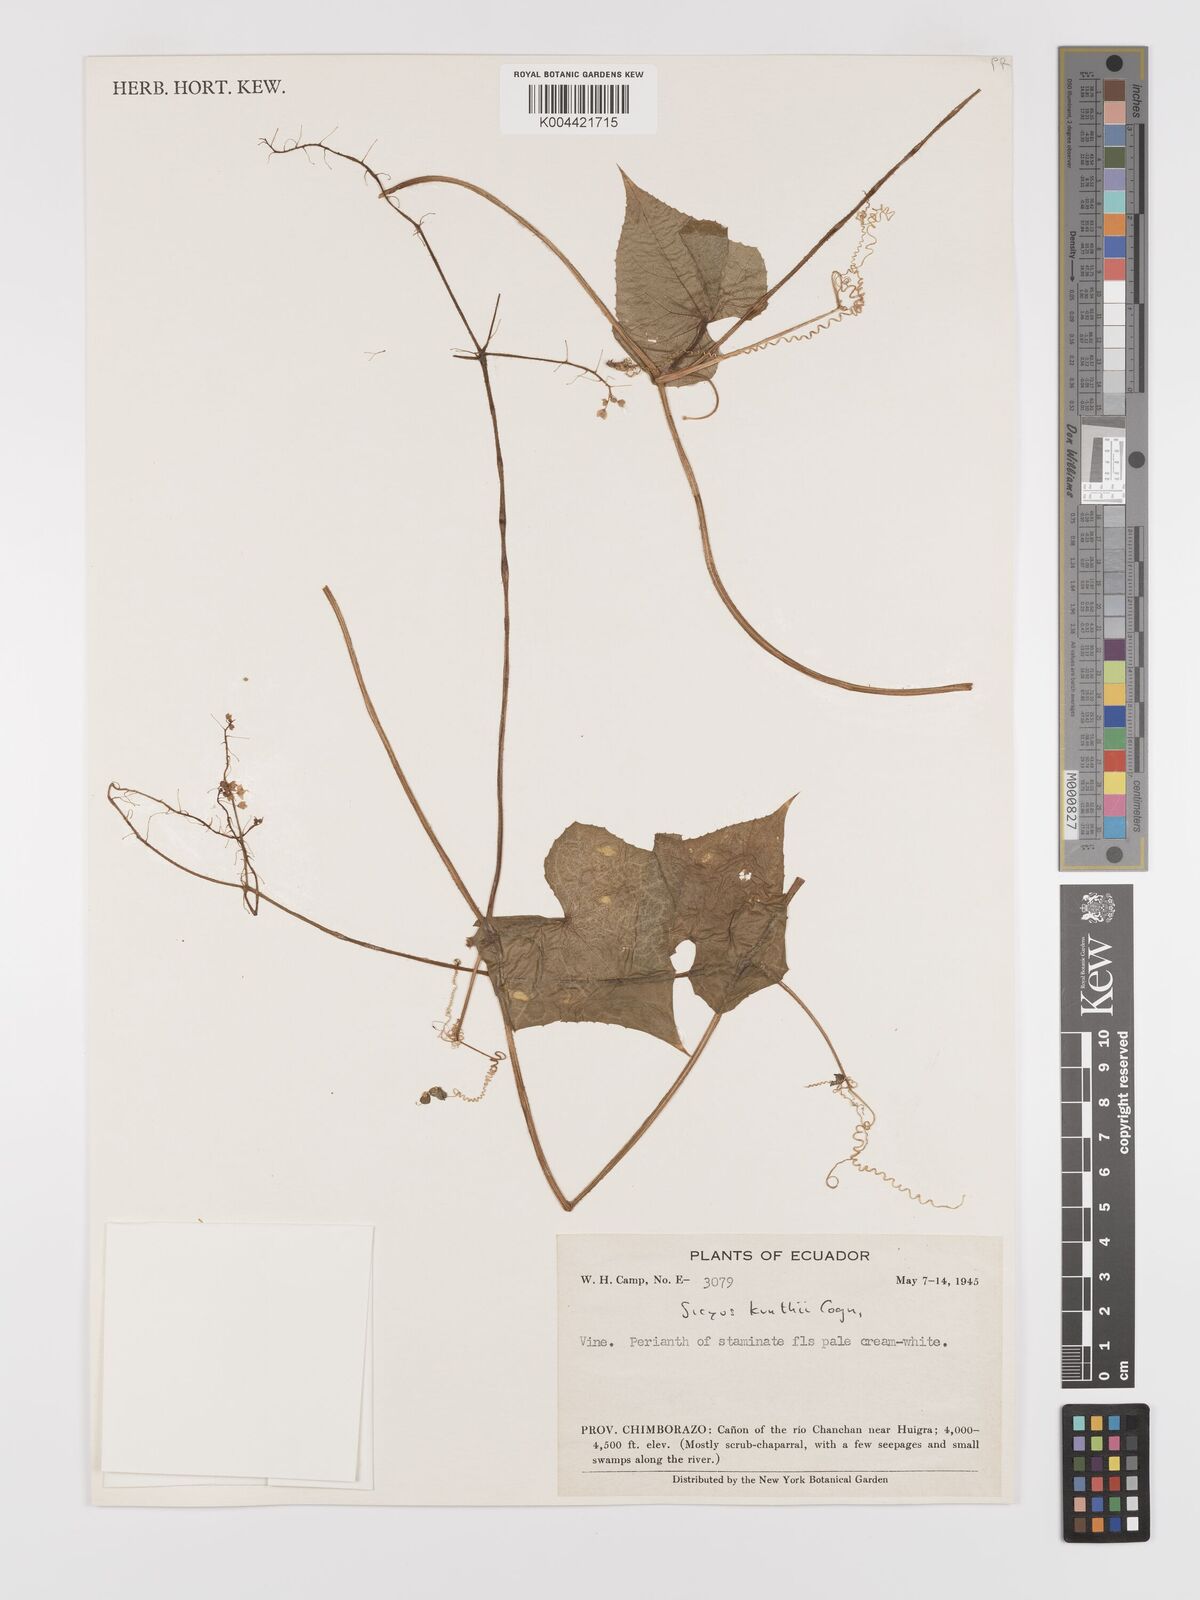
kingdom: Plantae
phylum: Tracheophyta
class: Magnoliopsida
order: Cucurbitales
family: Cucurbitaceae
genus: Sicyos
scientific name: Sicyos kunthii
